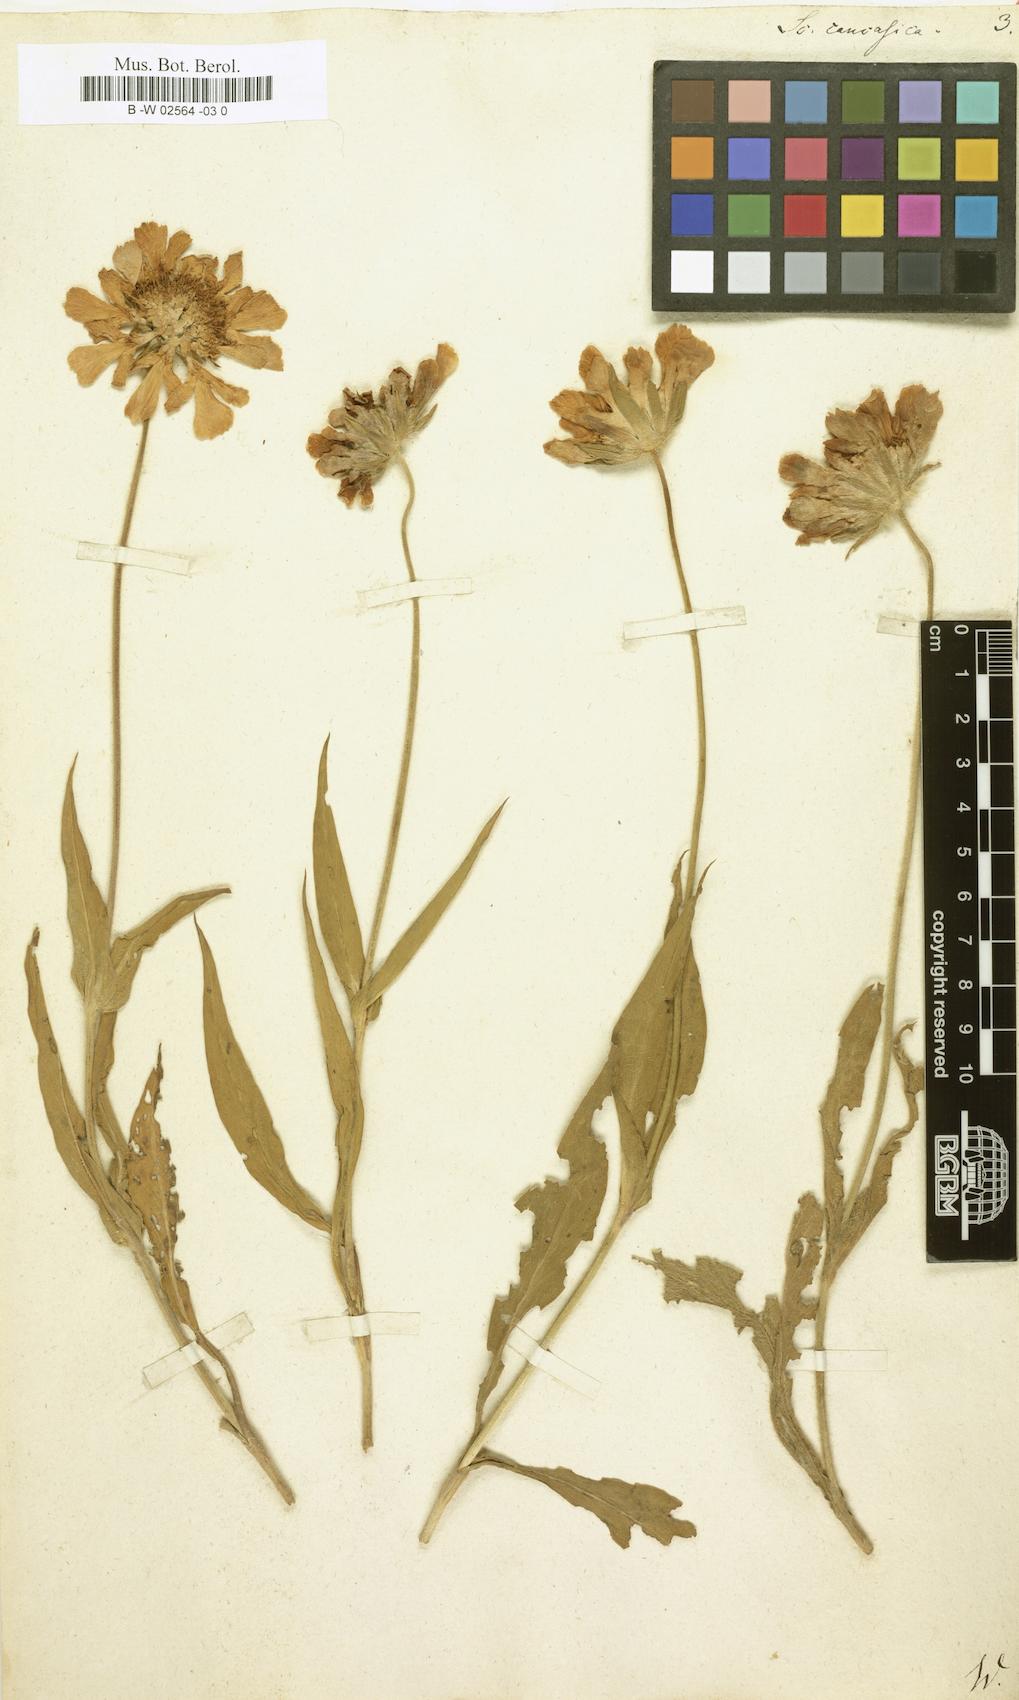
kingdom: Plantae
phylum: Tracheophyta
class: Magnoliopsida
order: Dipsacales
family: Caprifoliaceae
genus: Lomelosia
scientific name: Lomelosia caucasica
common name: Pincushion-flower
